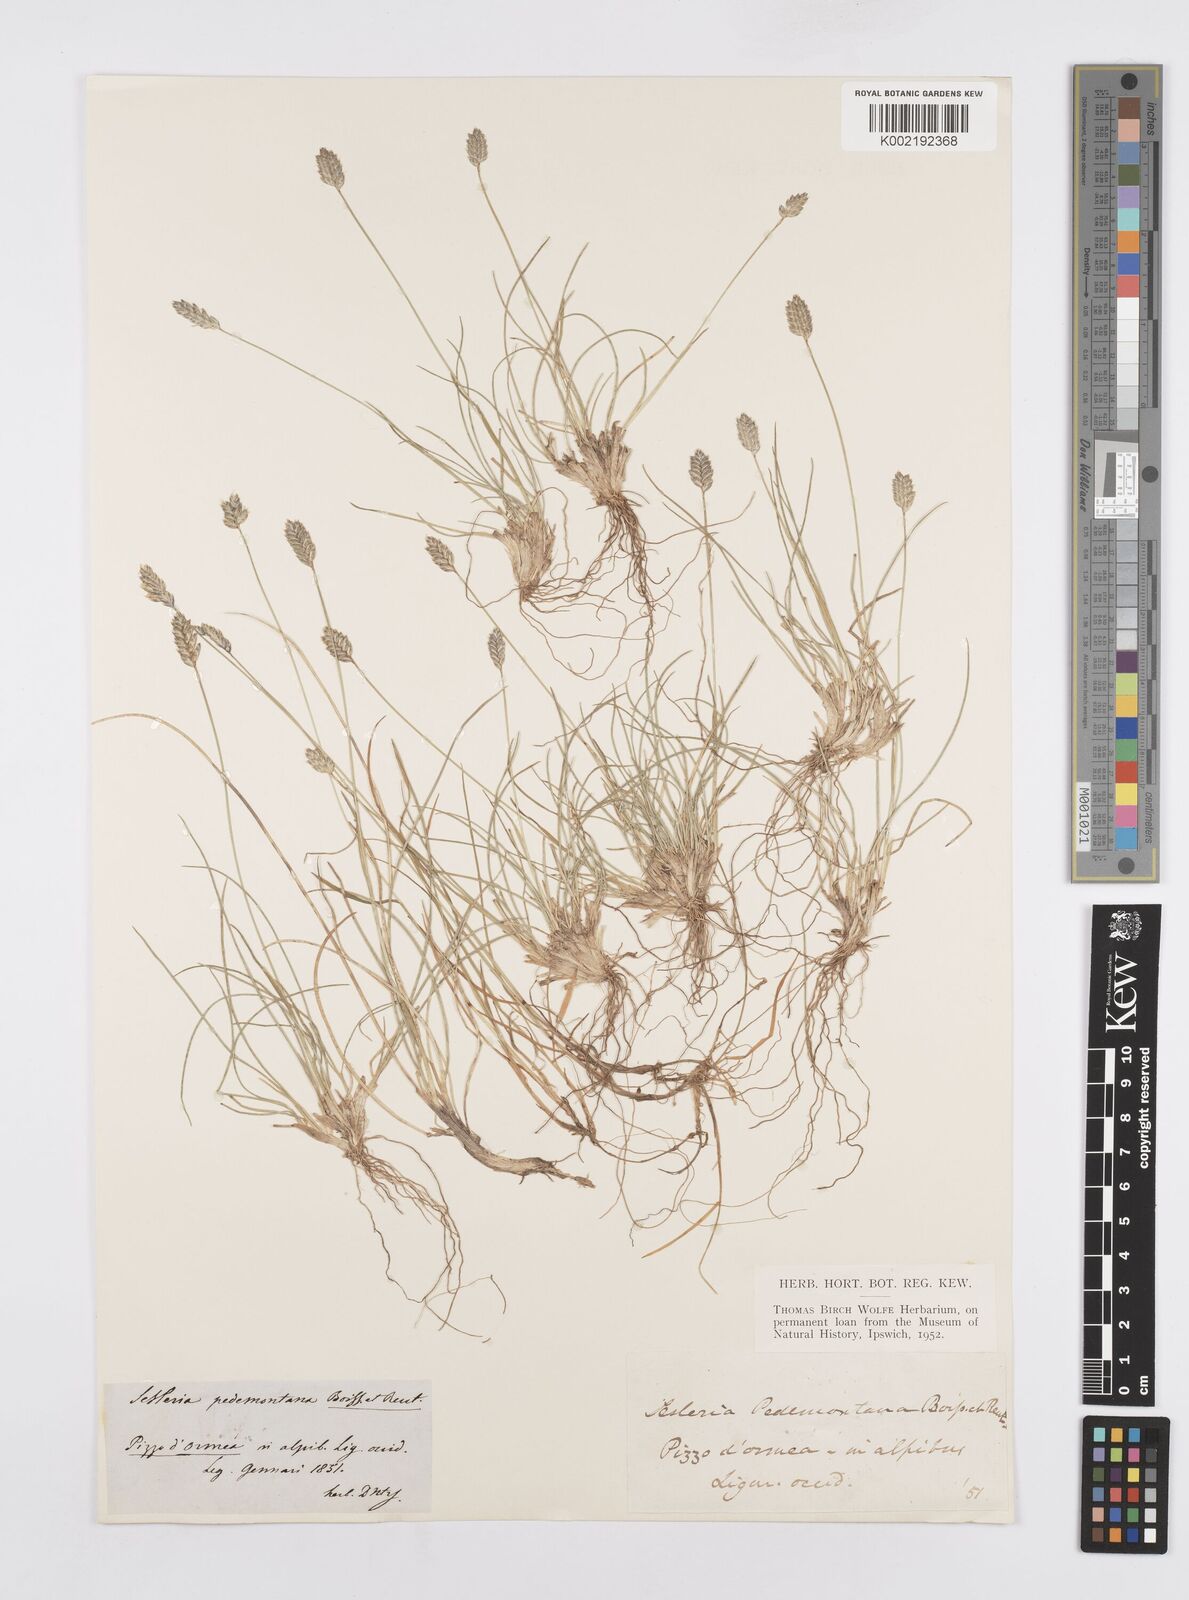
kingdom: Plantae
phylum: Tracheophyta
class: Liliopsida
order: Poales
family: Poaceae
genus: Oreochloa
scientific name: Oreochloa seslerioides
